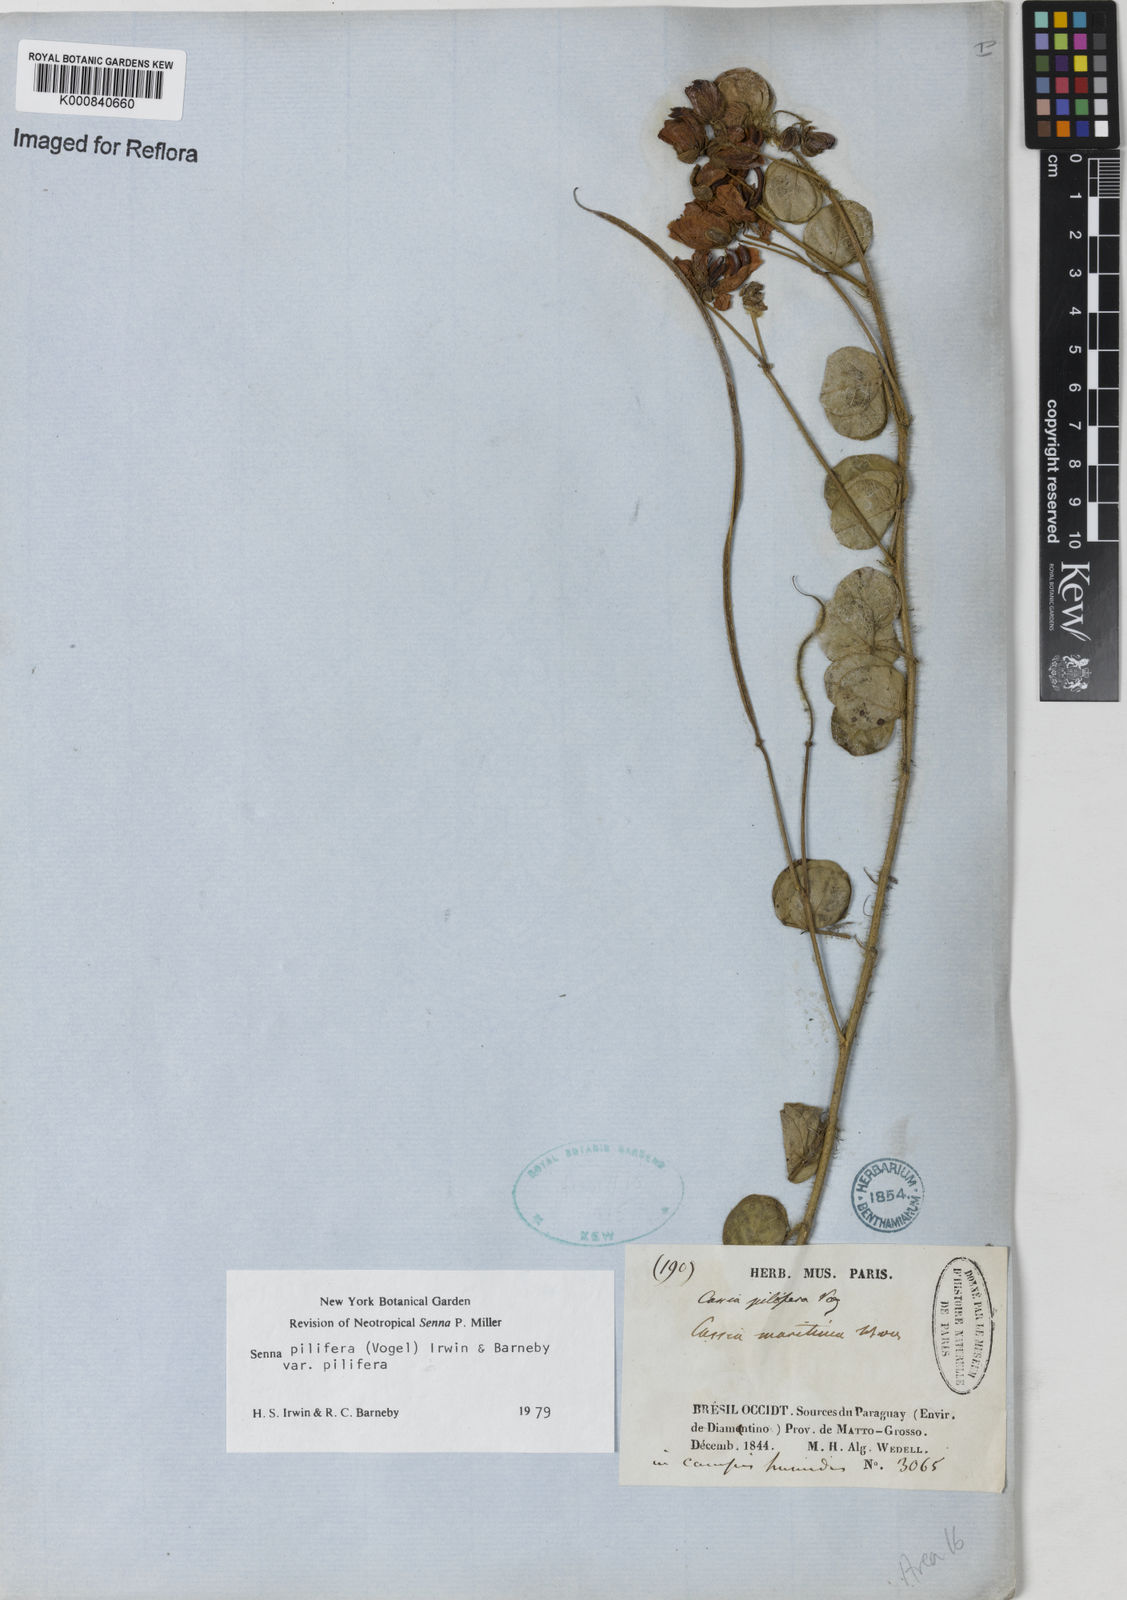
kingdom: Plantae
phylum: Tracheophyta
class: Magnoliopsida
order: Fabales
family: Fabaceae
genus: Senna
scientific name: Senna pilifera
